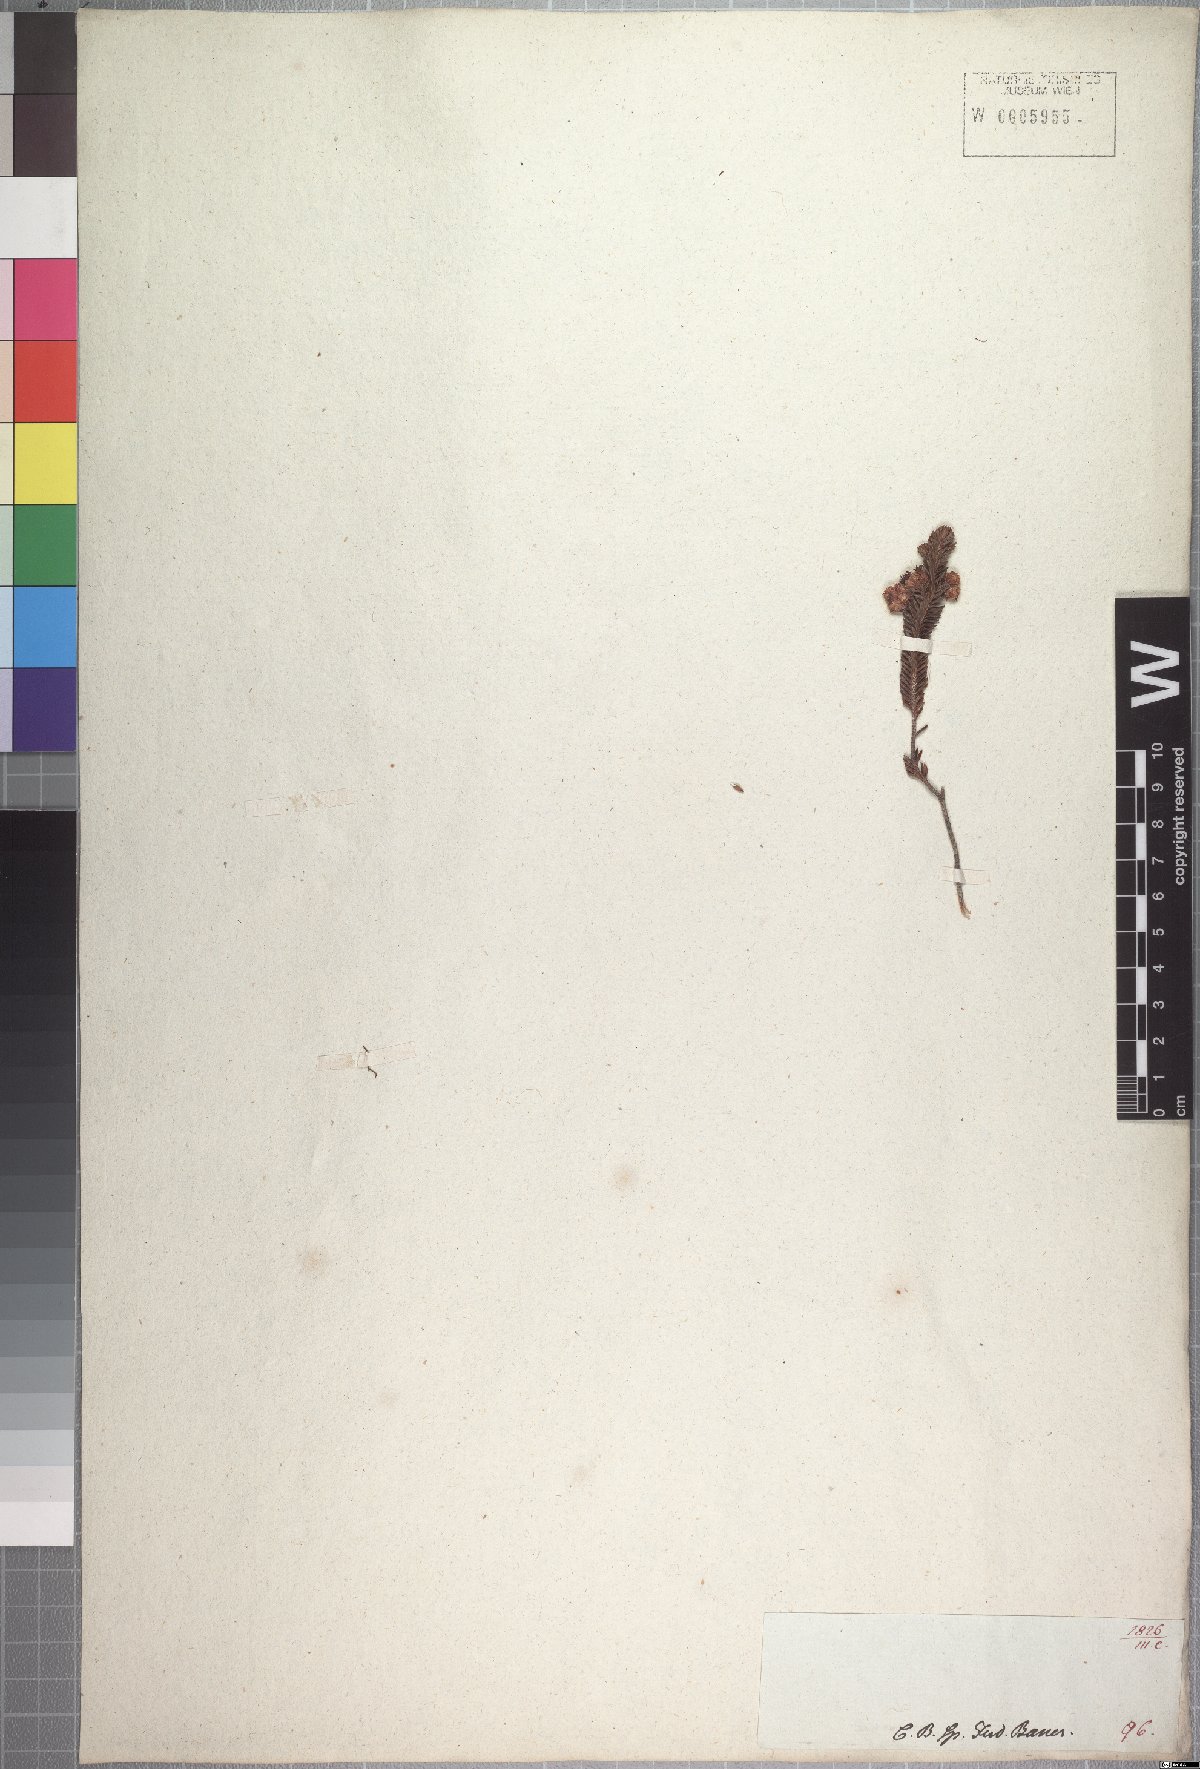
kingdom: Plantae
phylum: Tracheophyta
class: Magnoliopsida
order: Ericales
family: Ericaceae
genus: Erica
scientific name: Erica sexfaria
